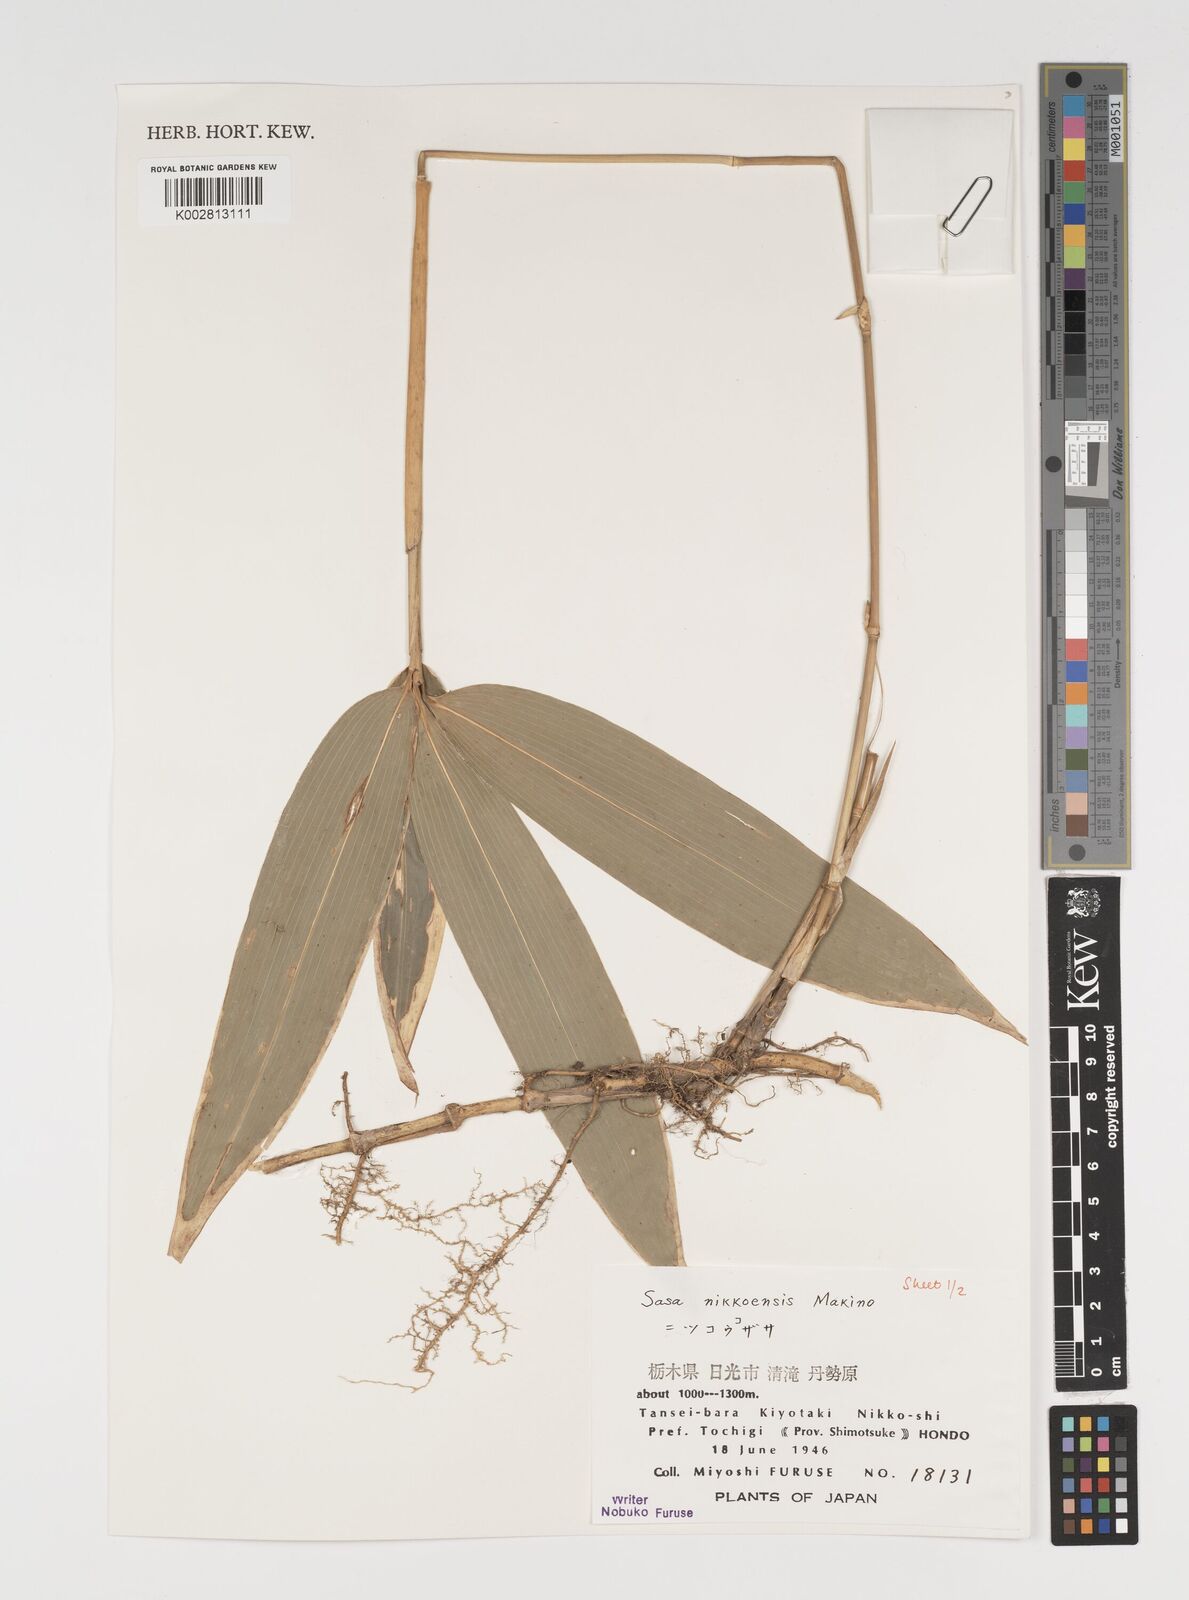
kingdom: Plantae
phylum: Tracheophyta
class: Liliopsida
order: Poales
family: Poaceae
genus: Sasa
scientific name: Sasa chartacea
